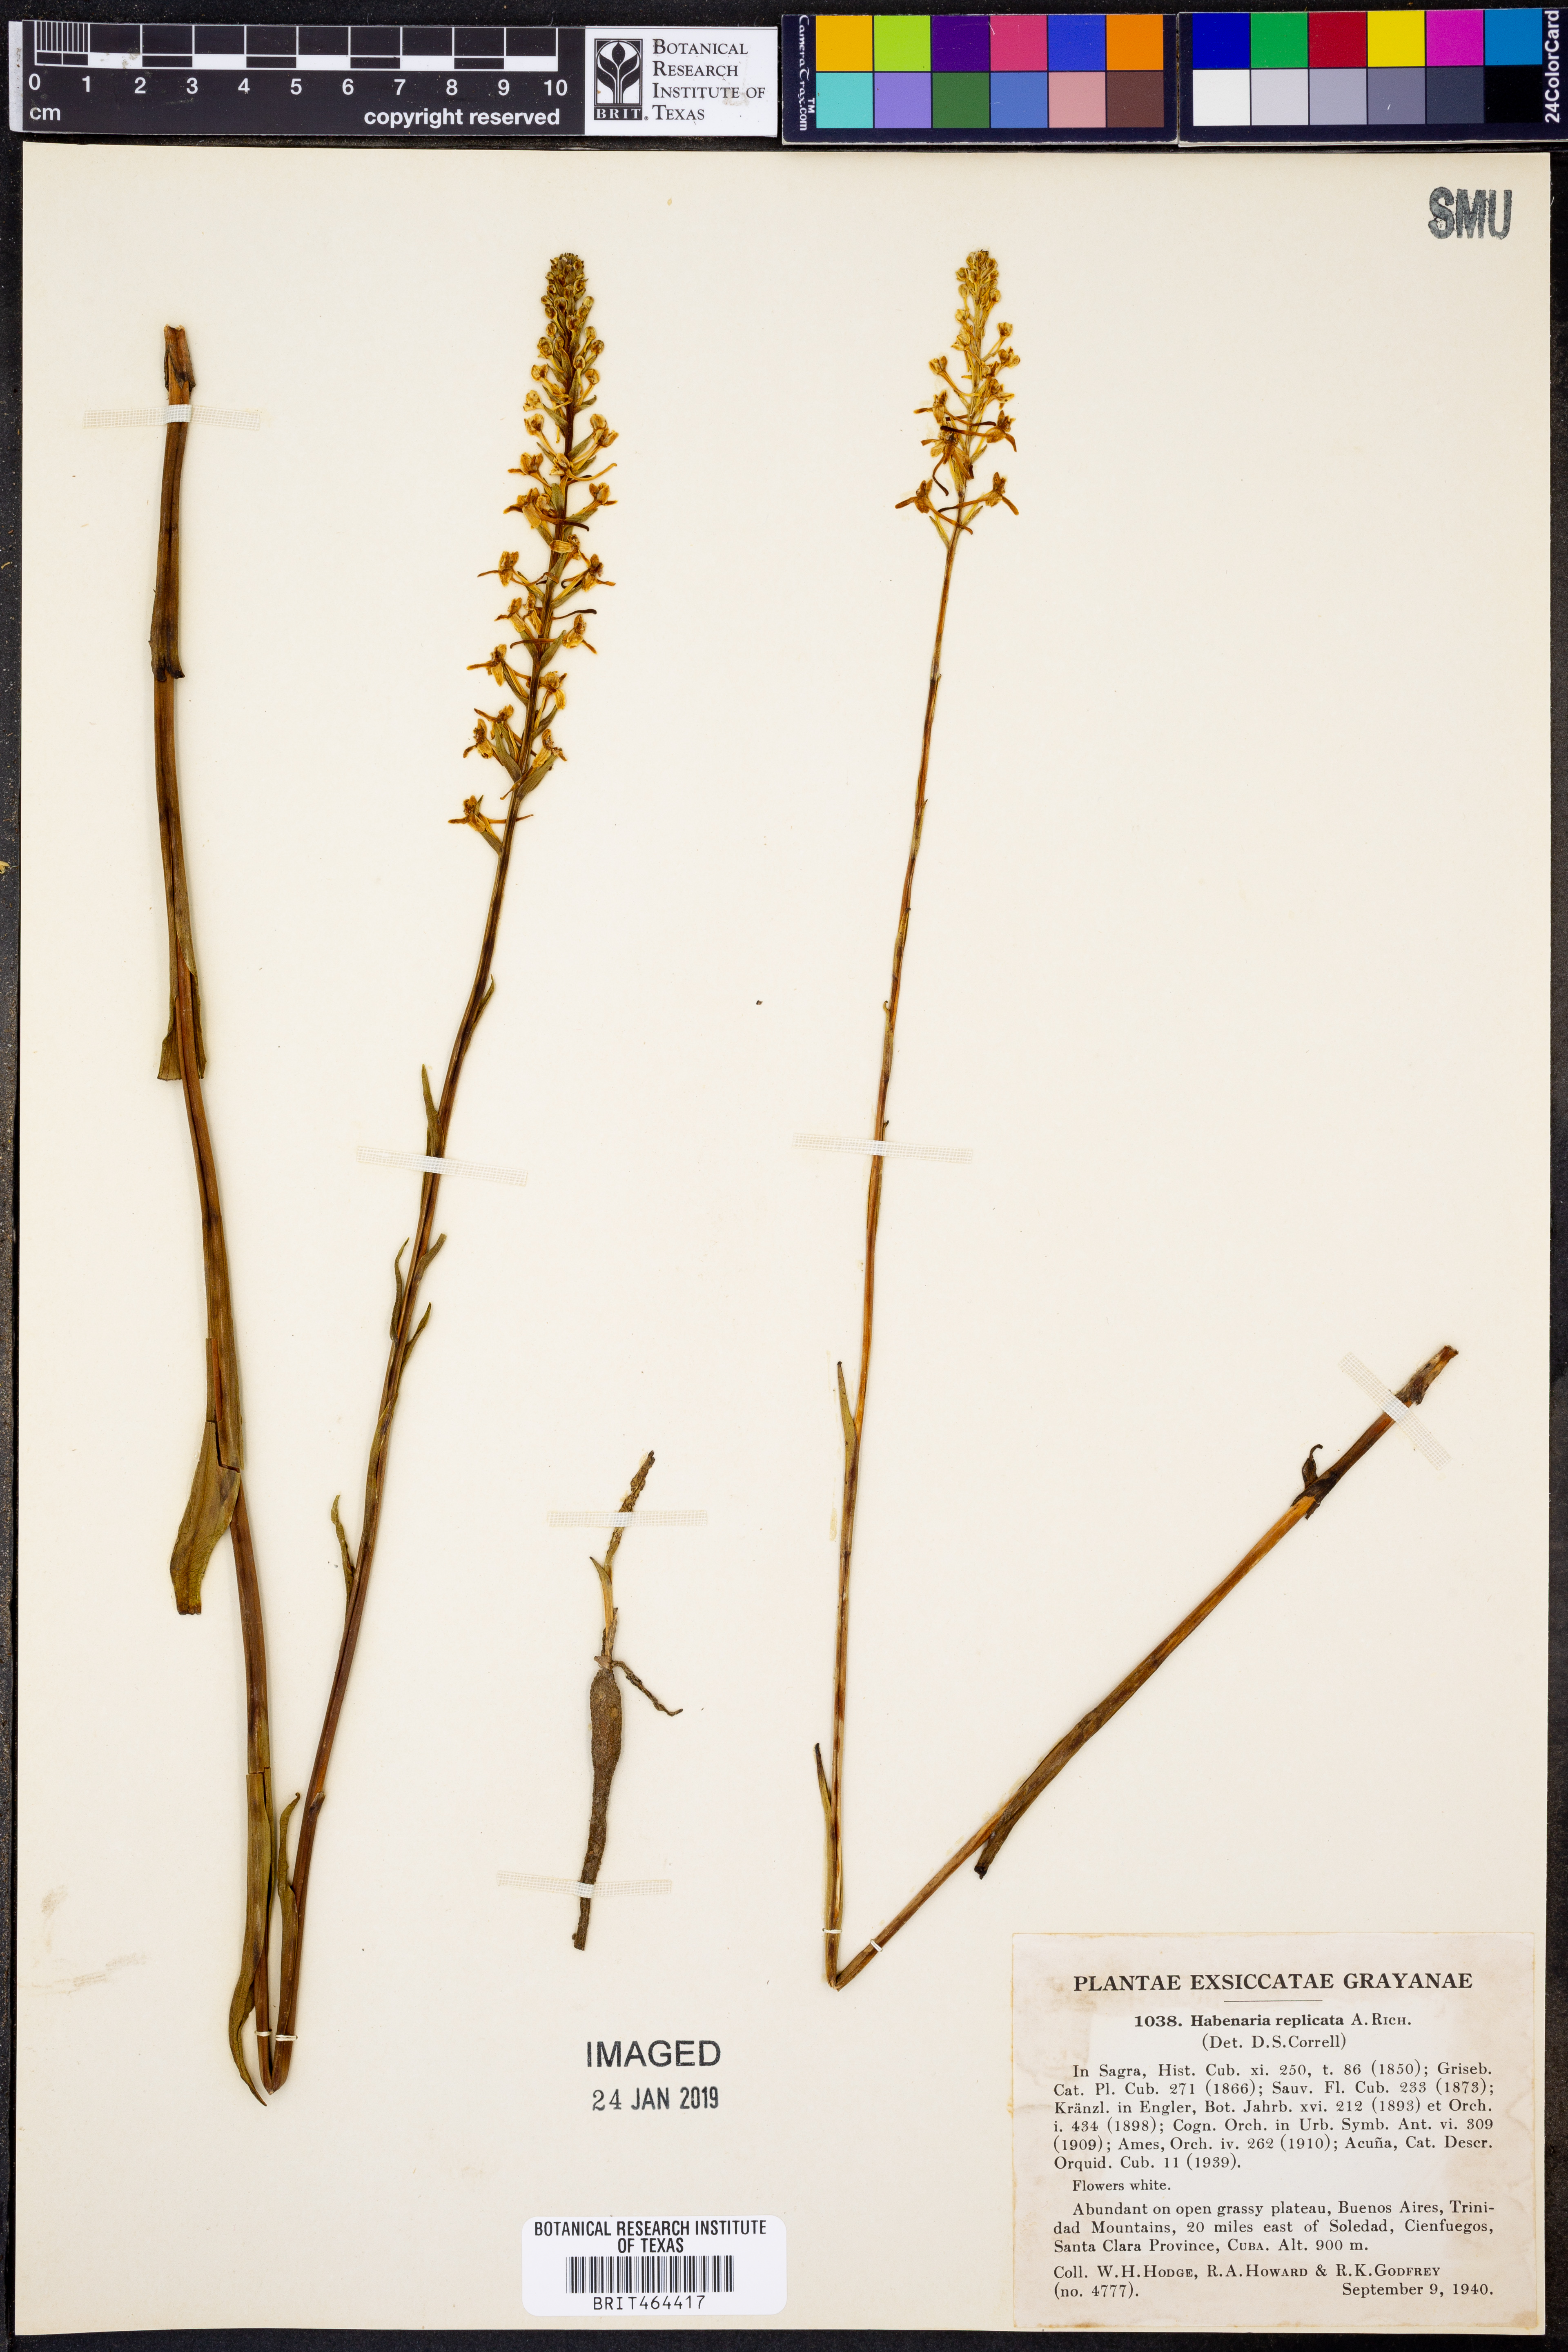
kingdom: Plantae
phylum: Tracheophyta
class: Liliopsida
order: Asparagales
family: Orchidaceae
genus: Platanthera
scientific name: Platanthera replicata
